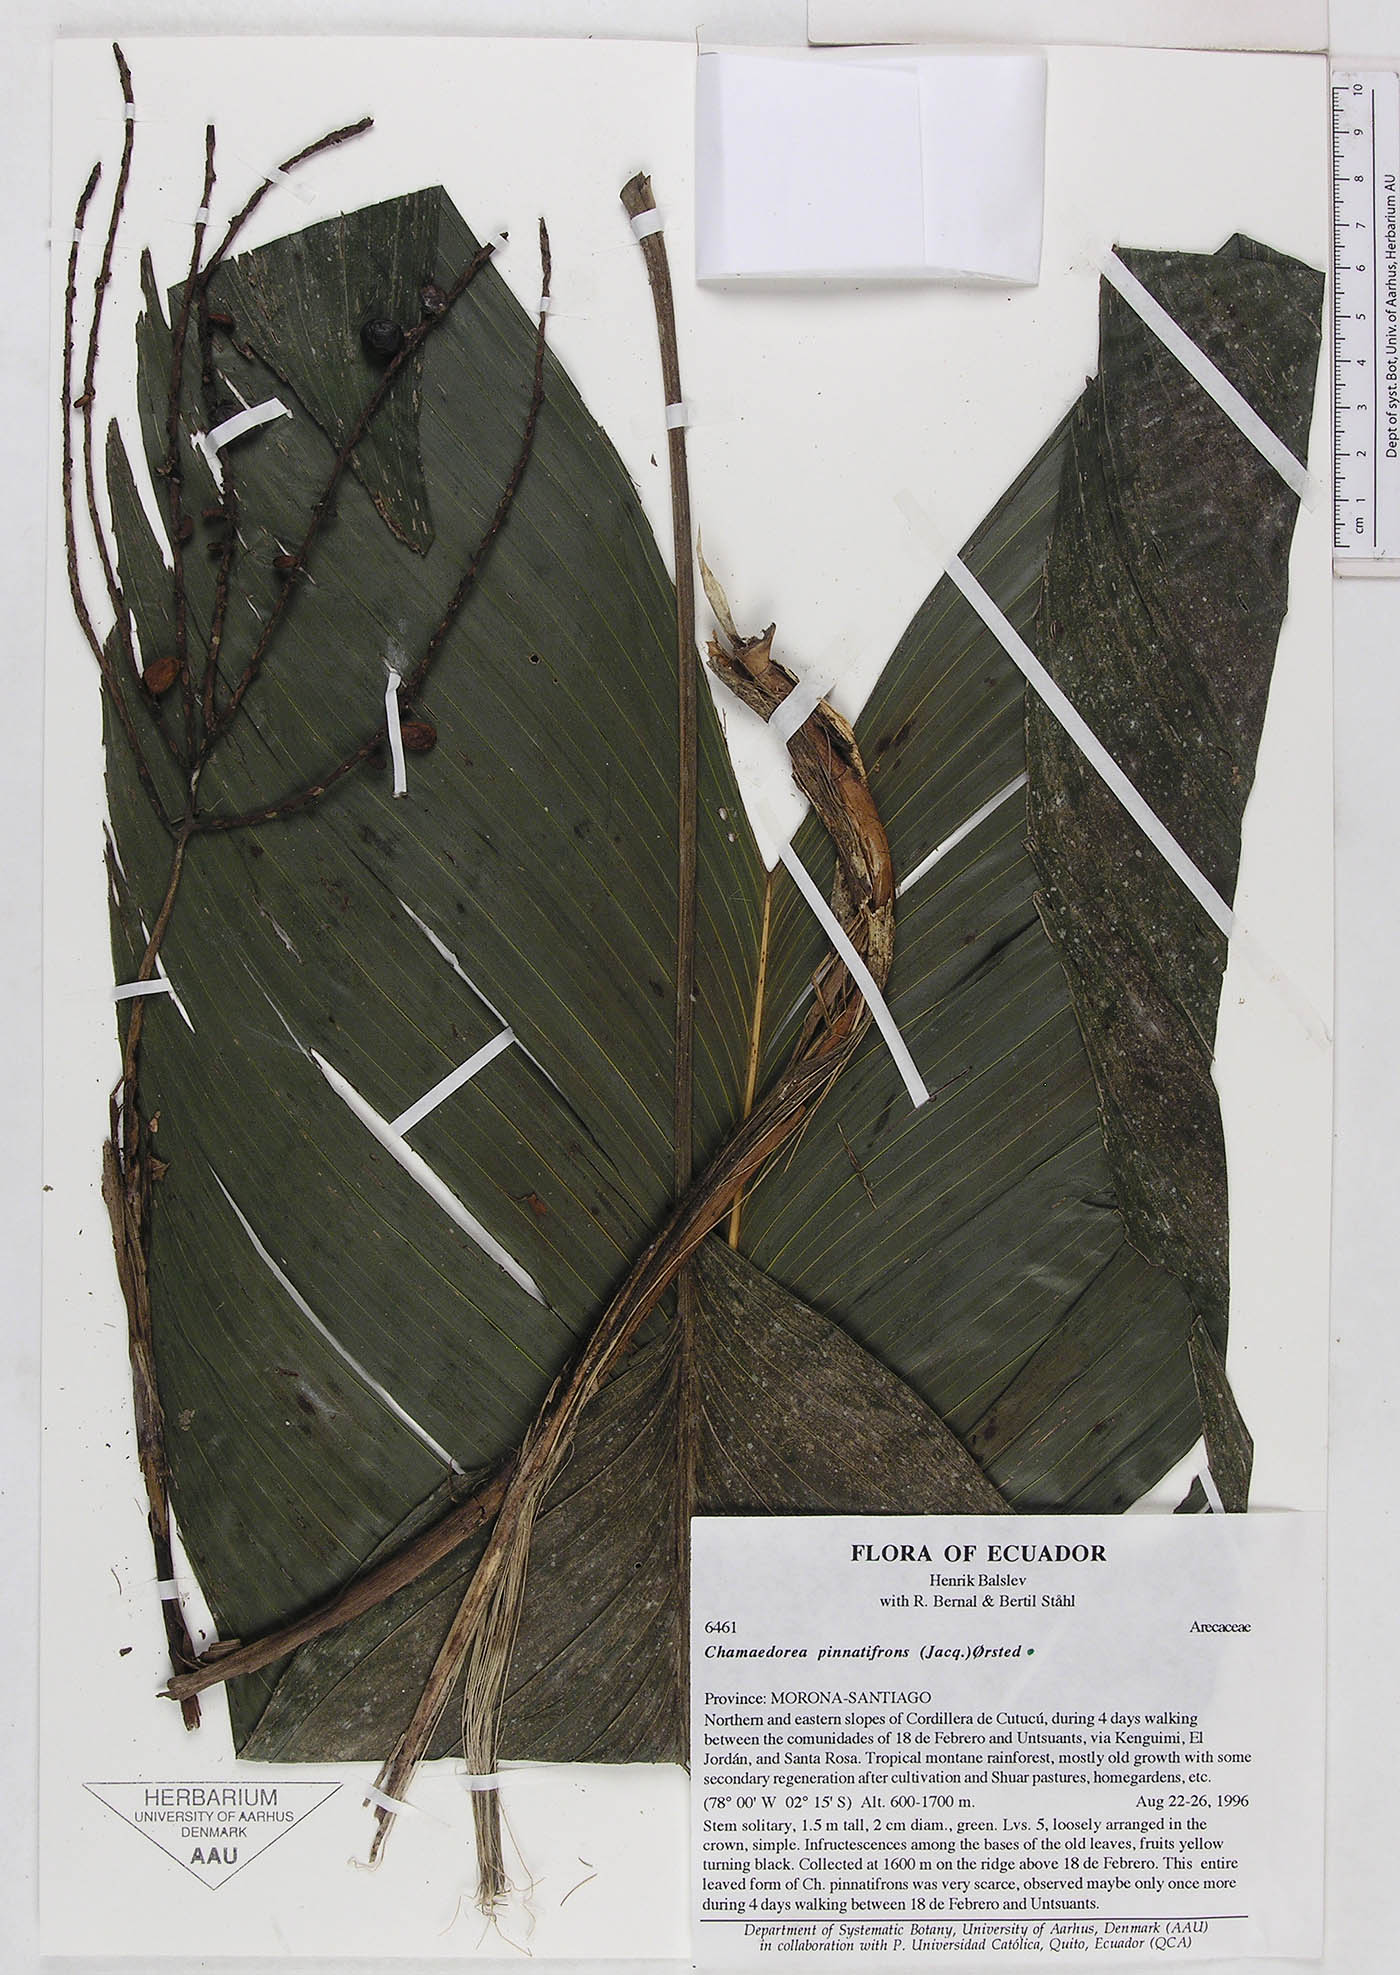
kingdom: Plantae
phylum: Tracheophyta
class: Liliopsida
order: Arecales
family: Arecaceae
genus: Chamaedorea
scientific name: Chamaedorea pinnatifrons
